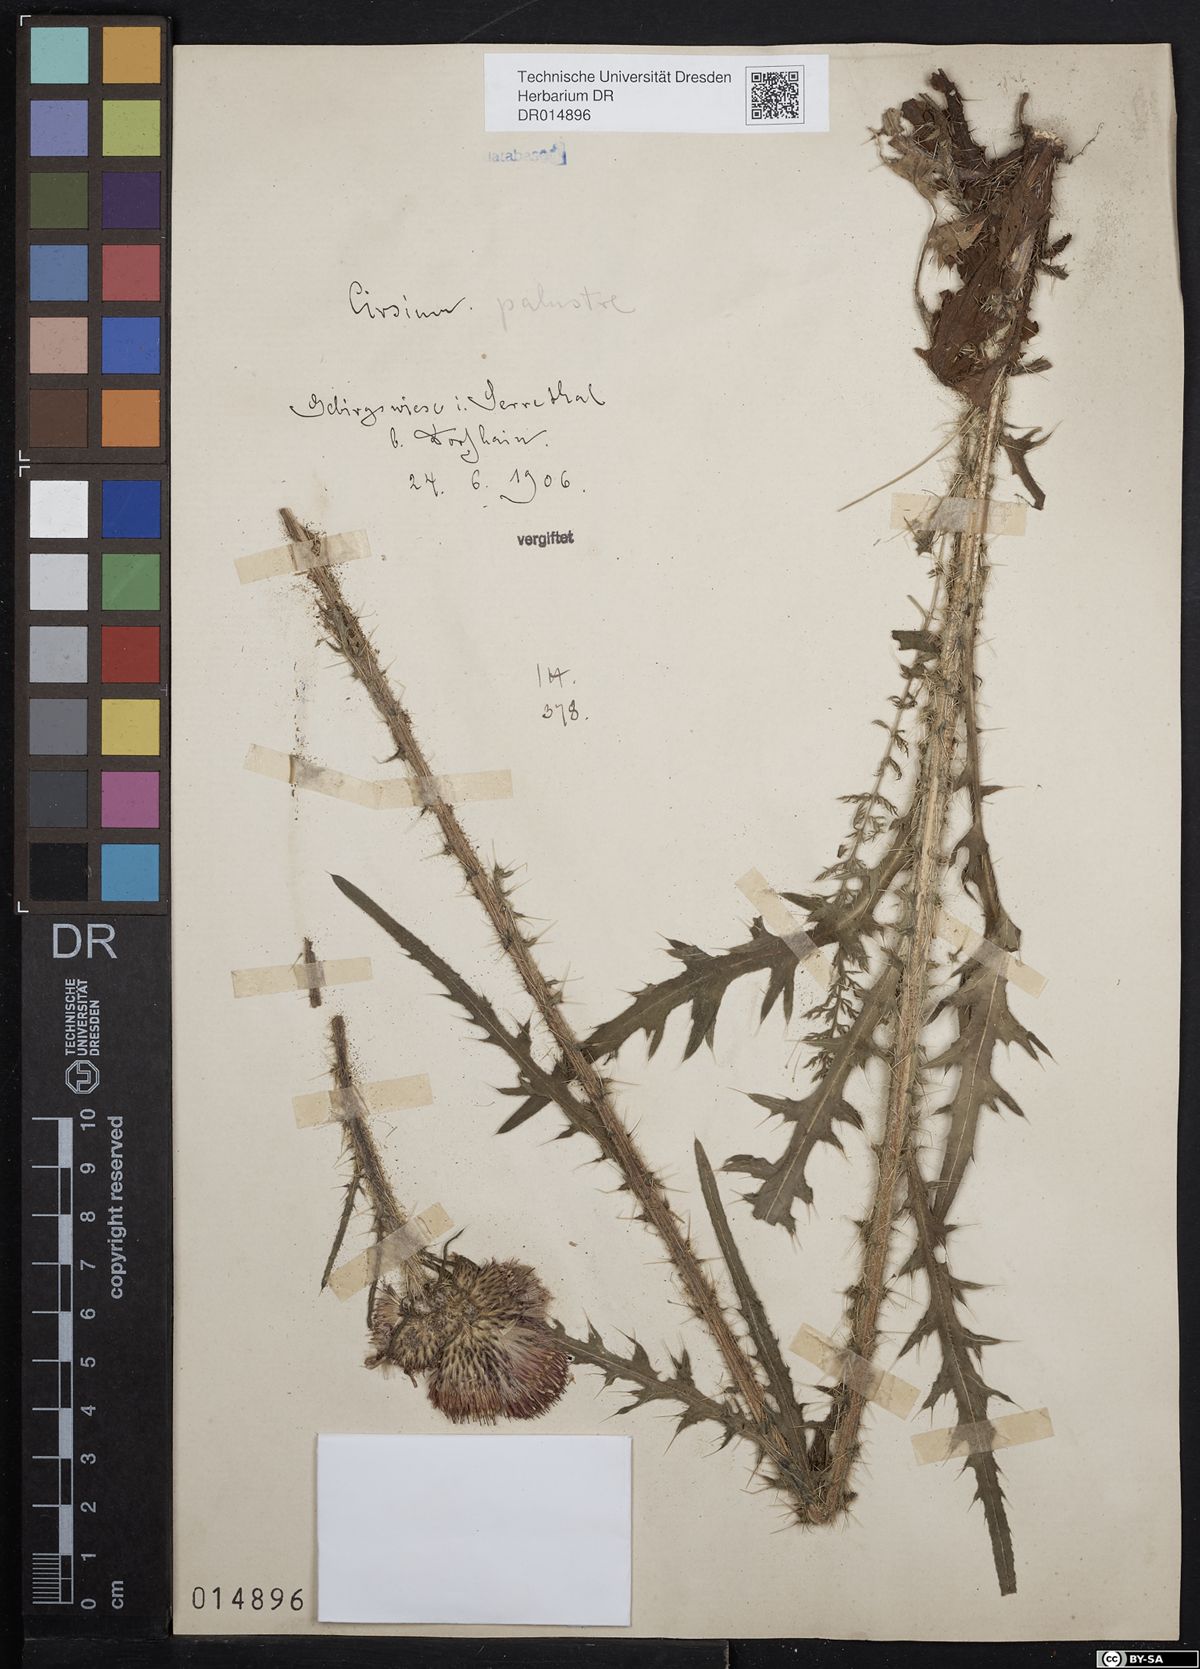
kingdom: Plantae
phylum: Tracheophyta
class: Magnoliopsida
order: Asterales
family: Asteraceae
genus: Cirsium
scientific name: Cirsium palustre
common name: Marsh thistle
